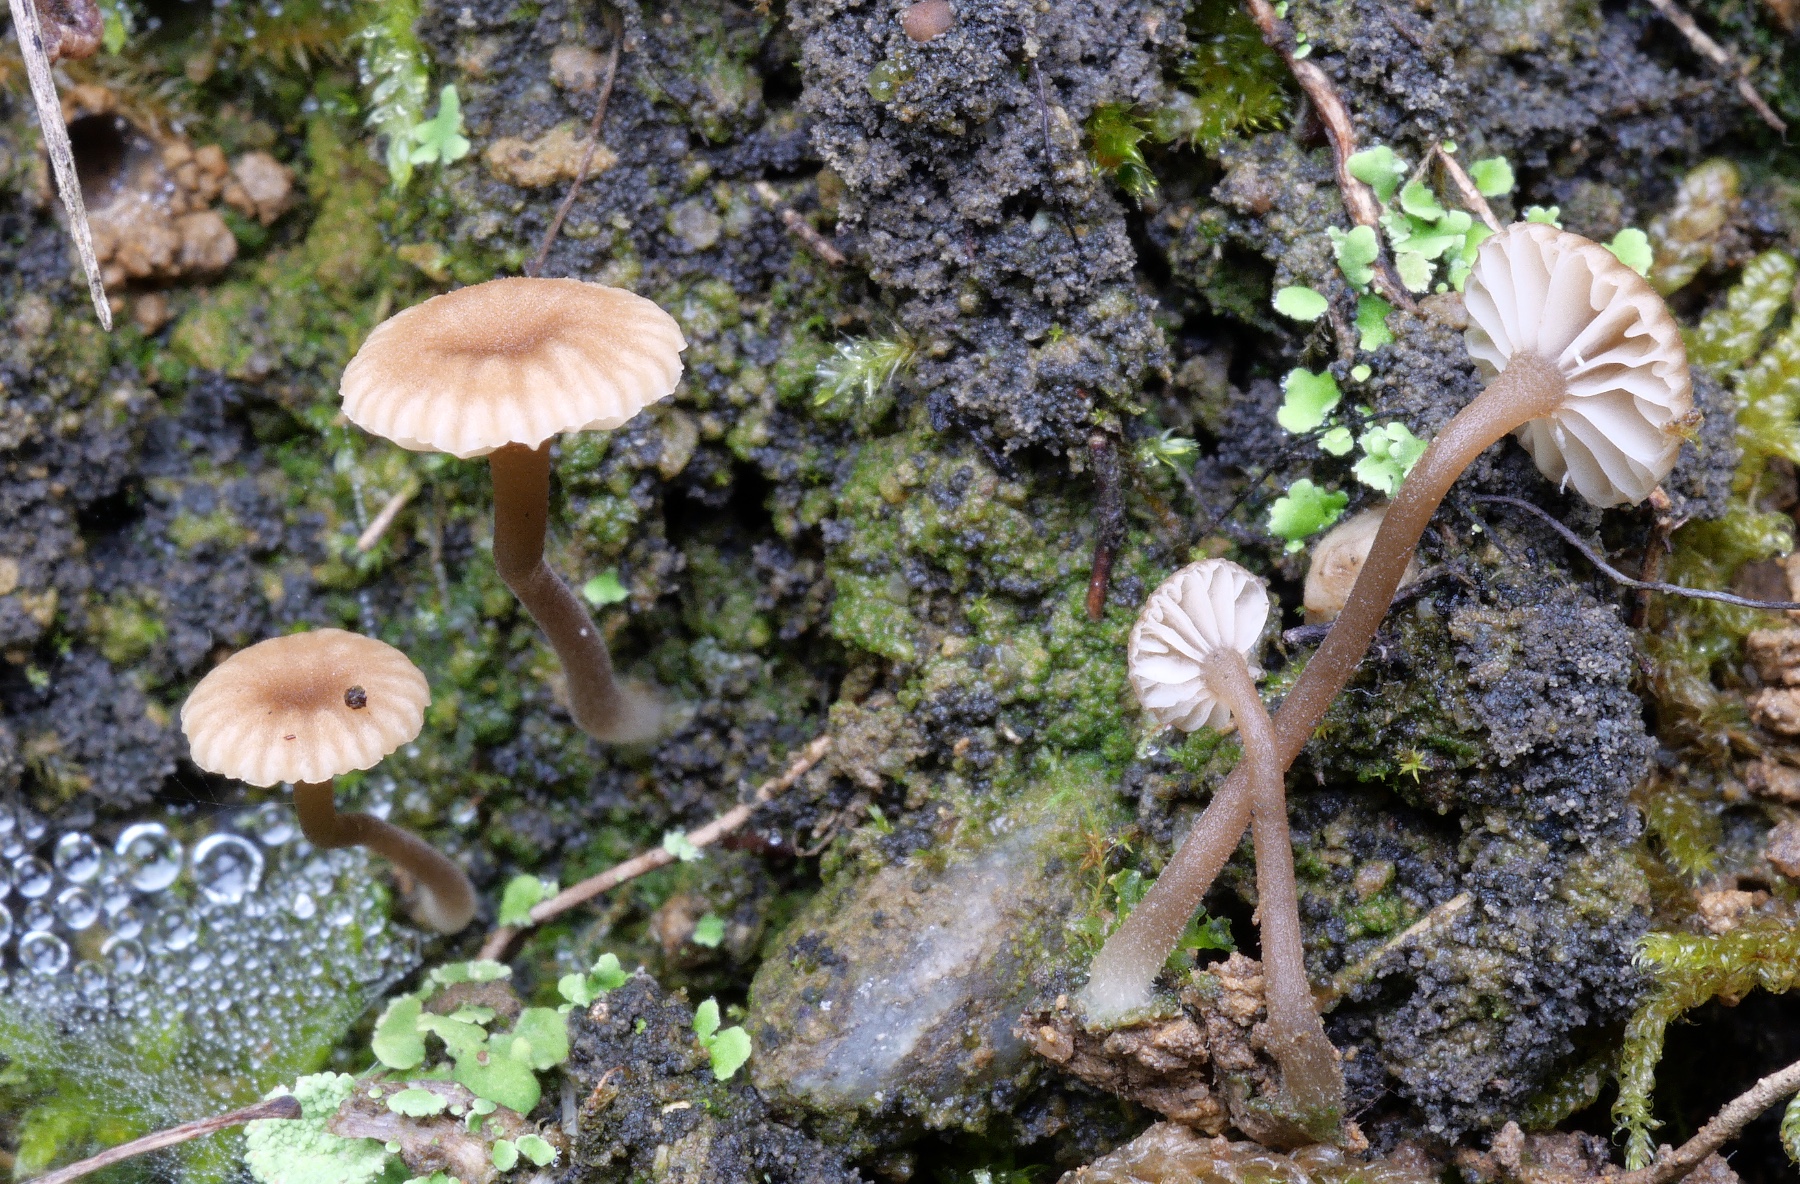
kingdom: Fungi
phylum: Basidiomycota
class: Agaricomycetes
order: Agaricales
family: Hygrophoraceae
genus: Lichenomphalia
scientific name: Lichenomphalia velutina
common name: dunet lavhat
